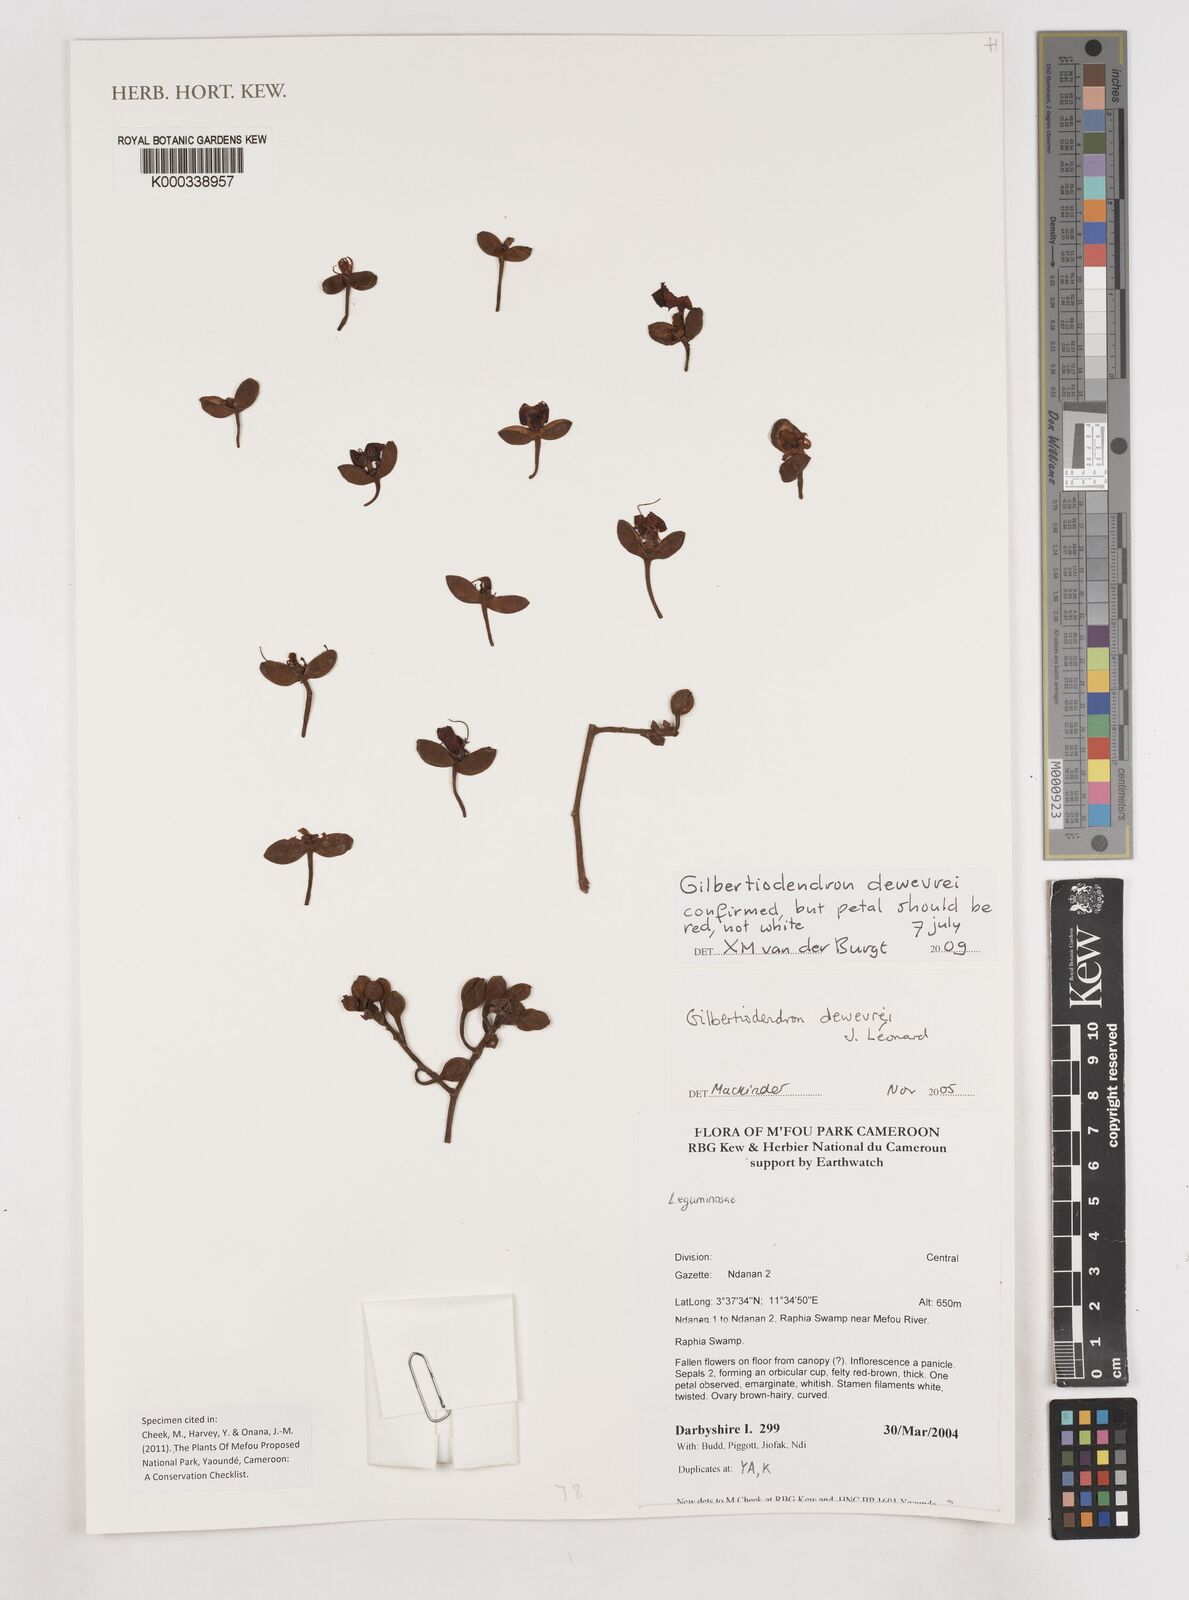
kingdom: Plantae
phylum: Tracheophyta
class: Magnoliopsida
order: Fabales
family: Fabaceae
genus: Gilbertiodendron
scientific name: Gilbertiodendron
